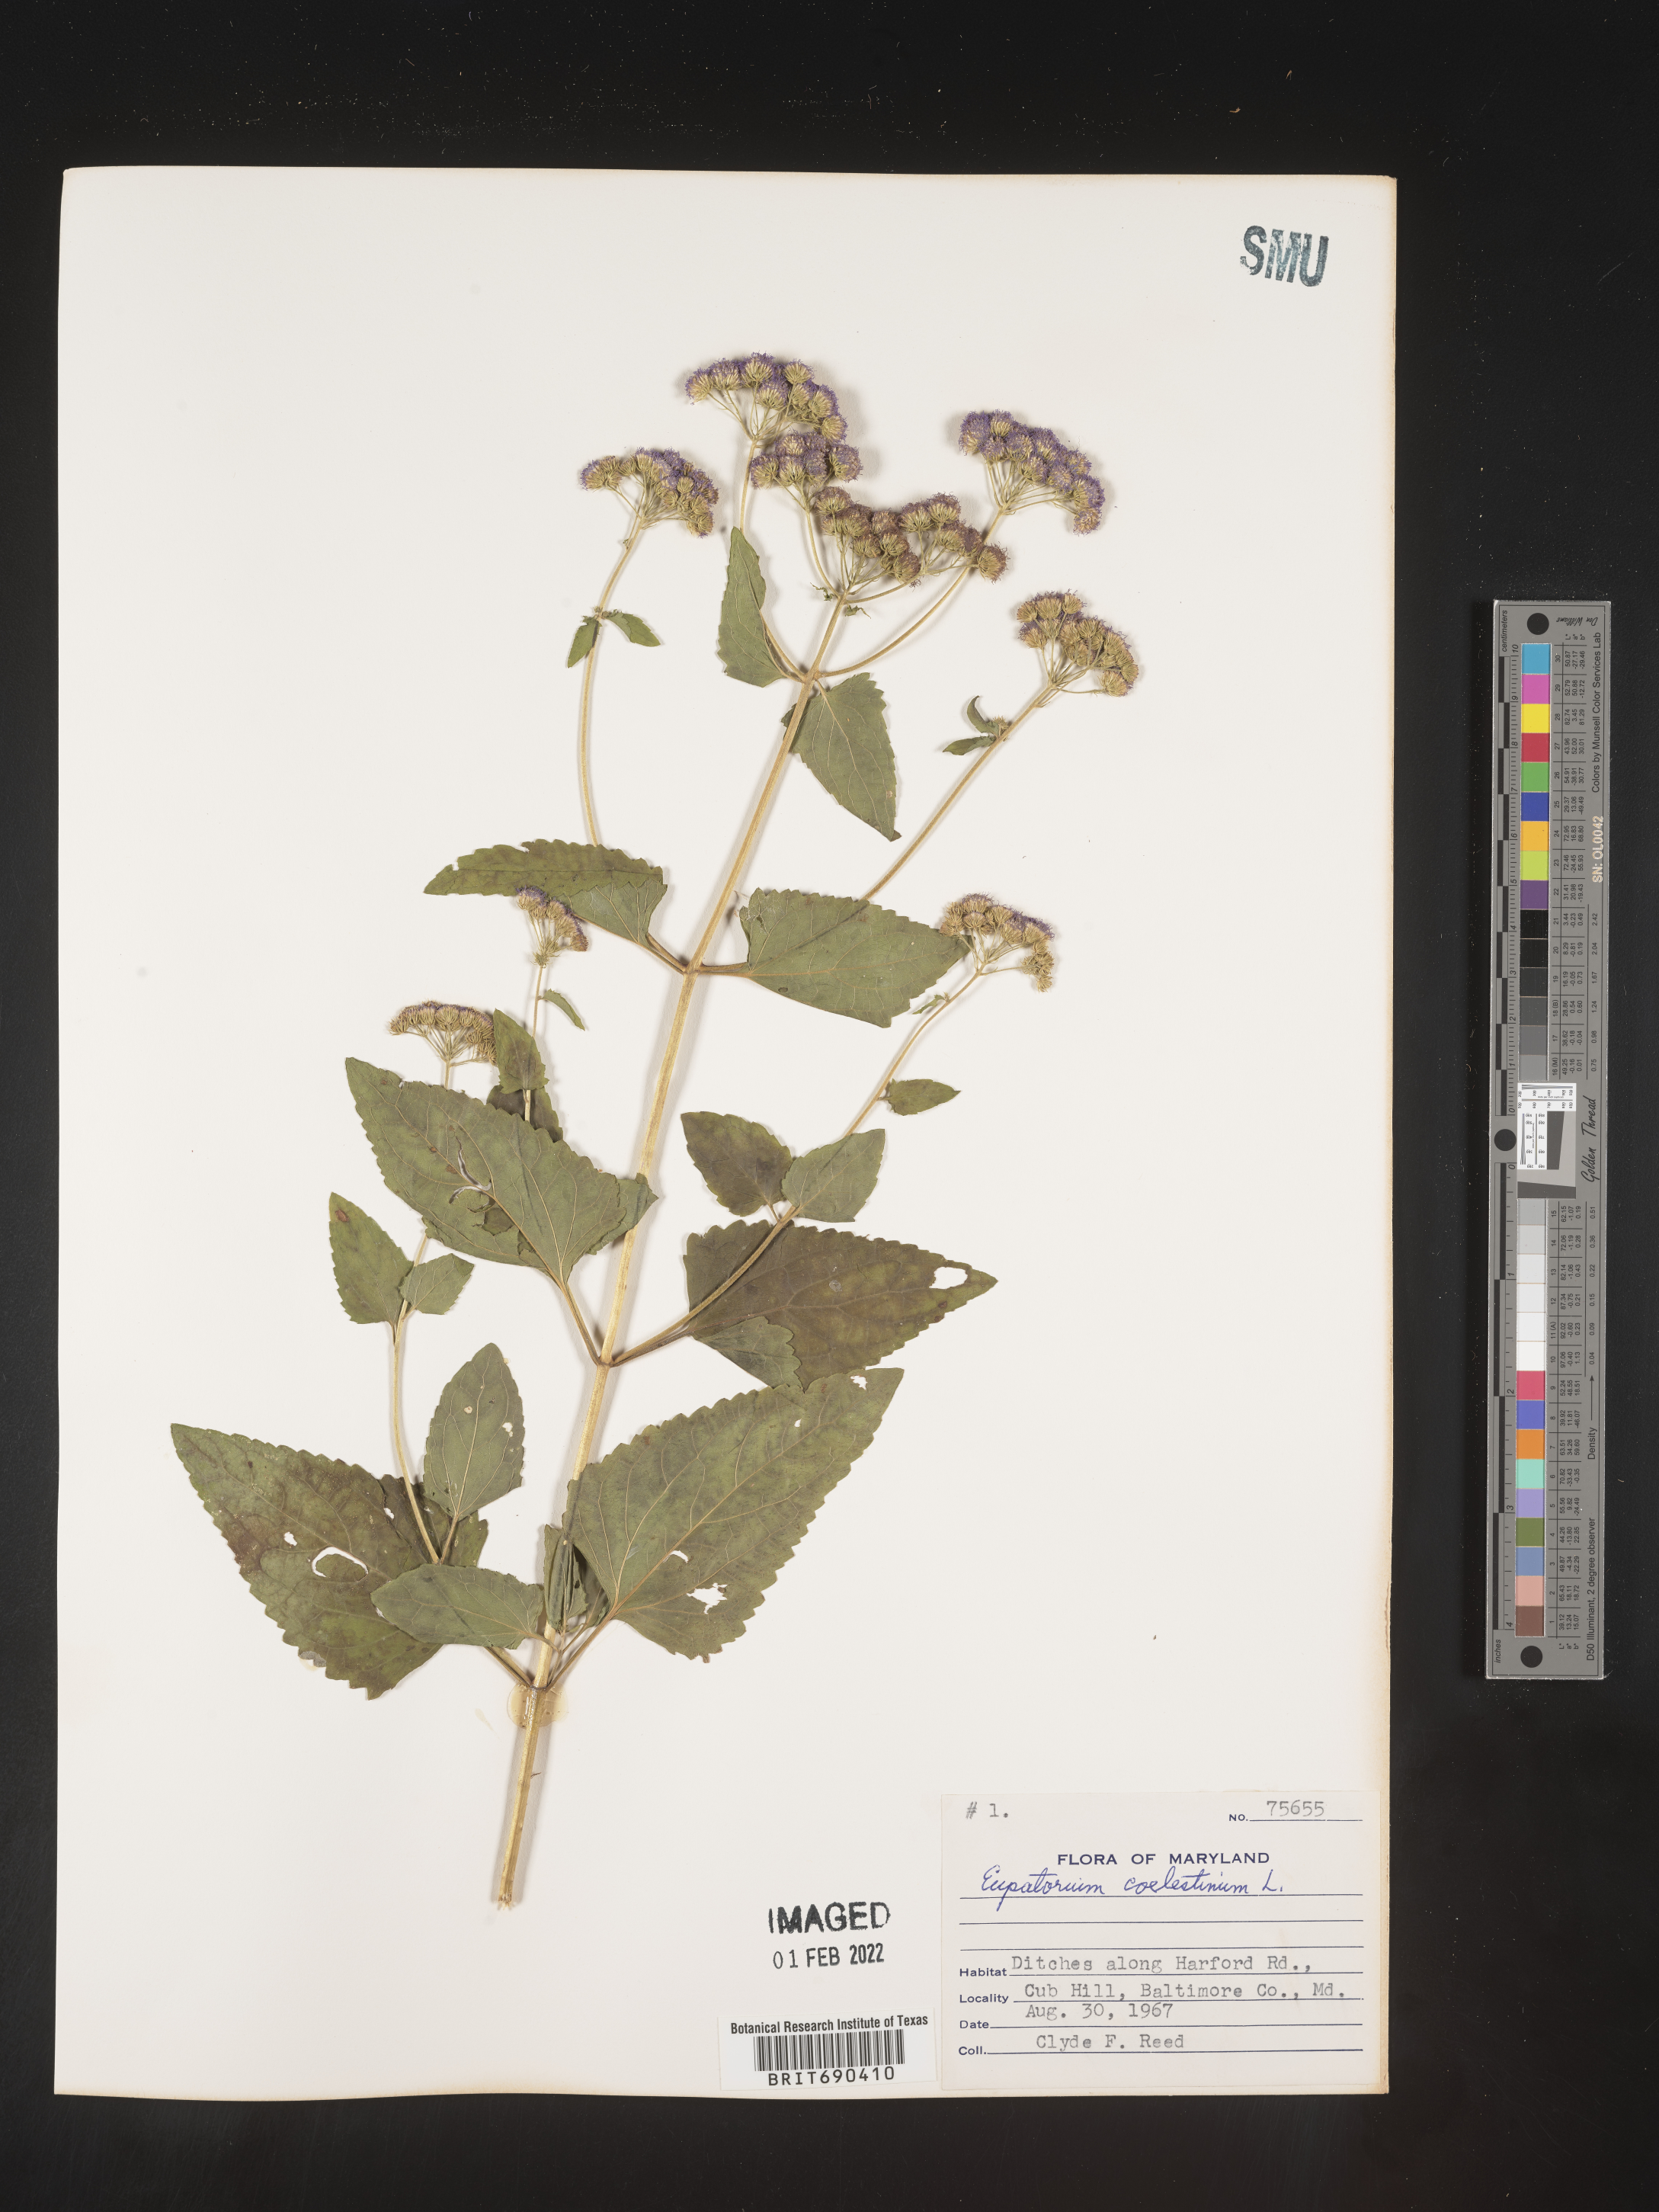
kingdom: Plantae
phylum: Tracheophyta
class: Magnoliopsida
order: Asterales
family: Asteraceae
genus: Conoclinium
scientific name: Conoclinium coelestinum
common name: Blue mistflower
